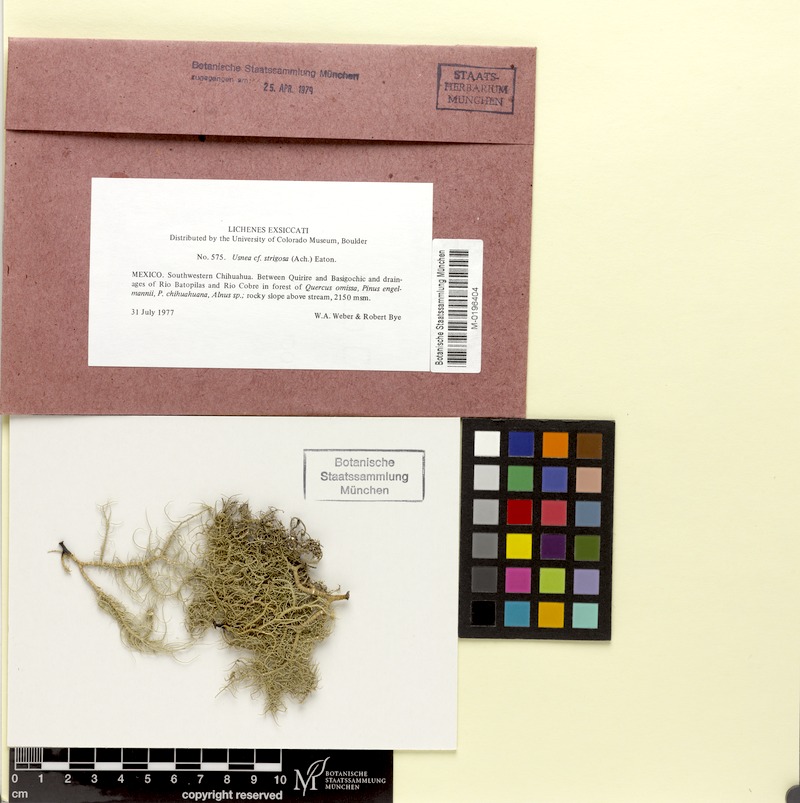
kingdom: Fungi
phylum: Ascomycota
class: Lecanoromycetes
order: Lecanorales
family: Parmeliaceae
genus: Usnea
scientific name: Usnea strigosa
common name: Bushy beard lichen
